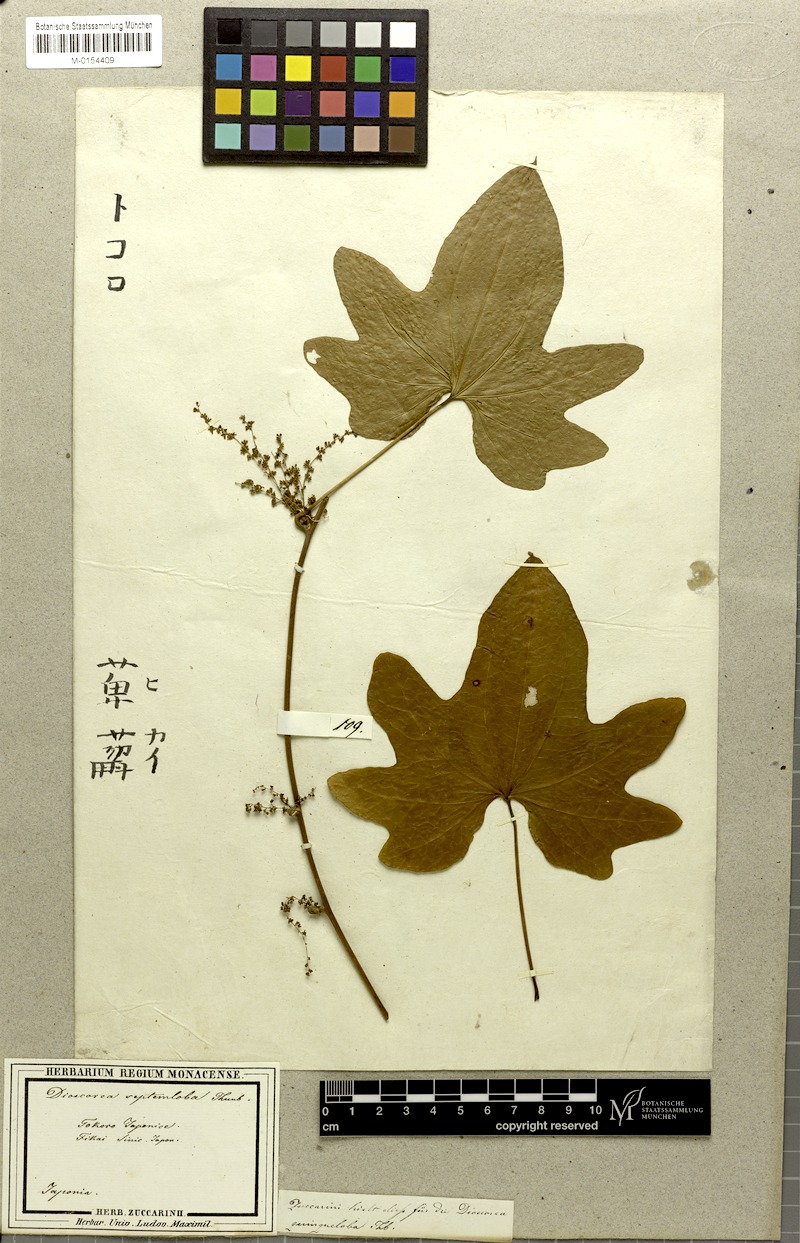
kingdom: Plantae
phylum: Tracheophyta
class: Liliopsida
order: Dioscoreales
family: Dioscoreaceae
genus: Dioscorea
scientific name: Dioscorea septemloba
